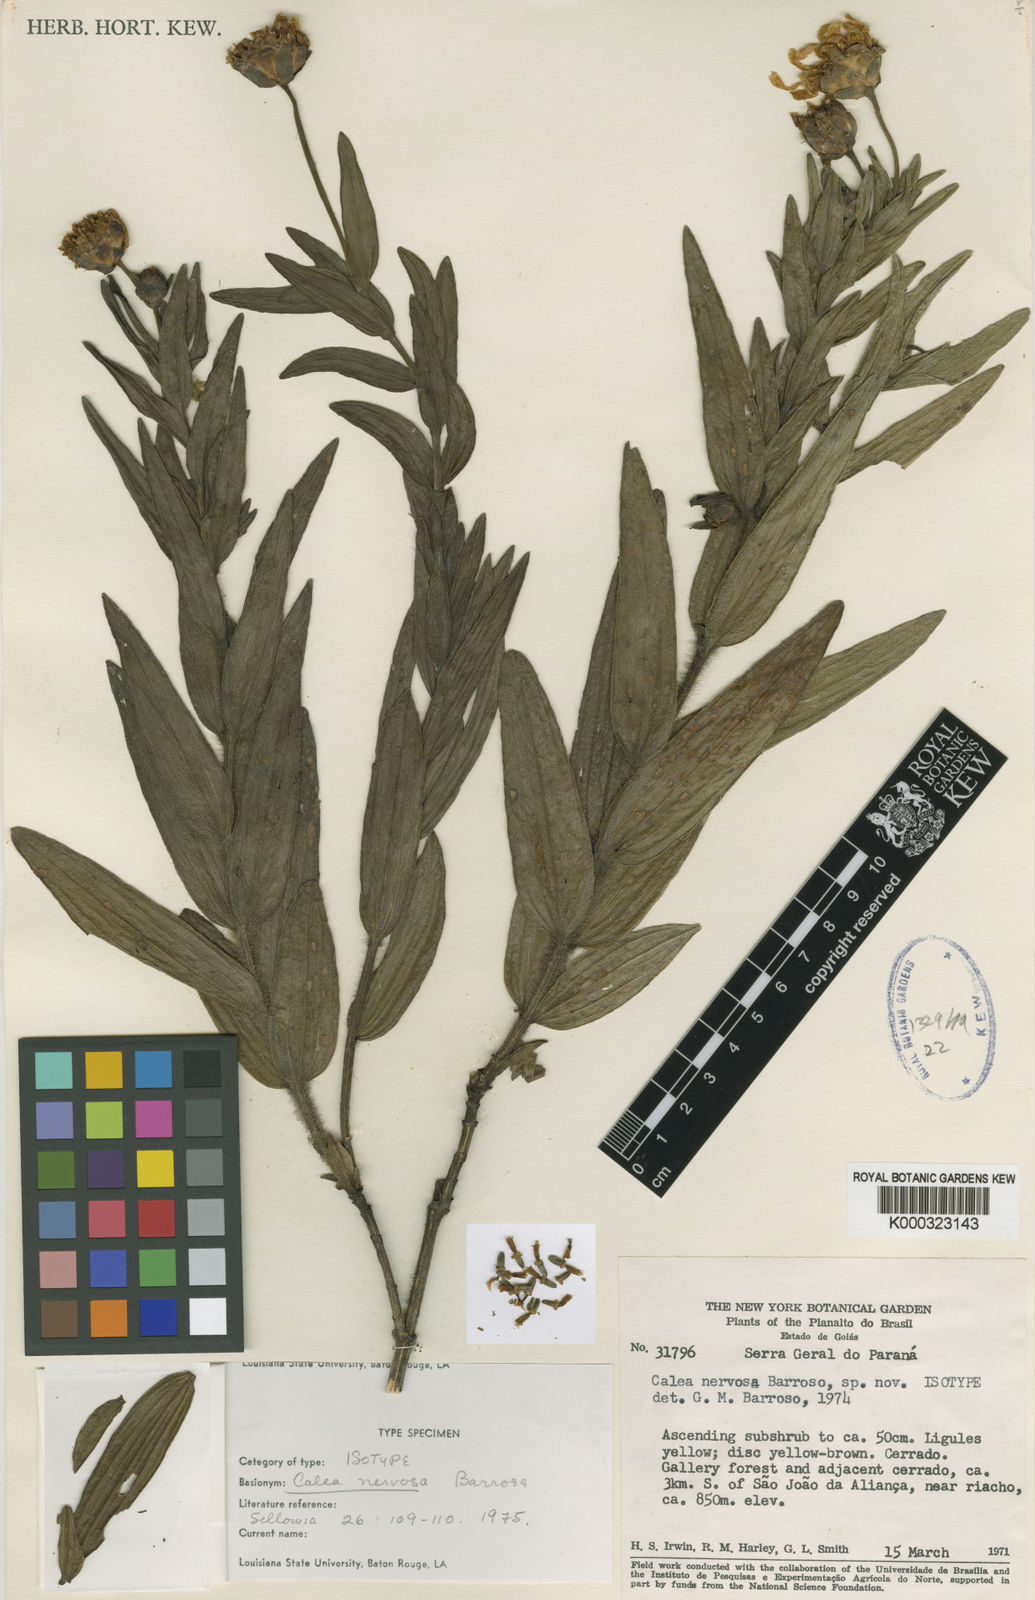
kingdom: Plantae
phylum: Tracheophyta
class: Magnoliopsida
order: Asterales
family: Asteraceae
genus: Calea
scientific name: Calea nervosa
